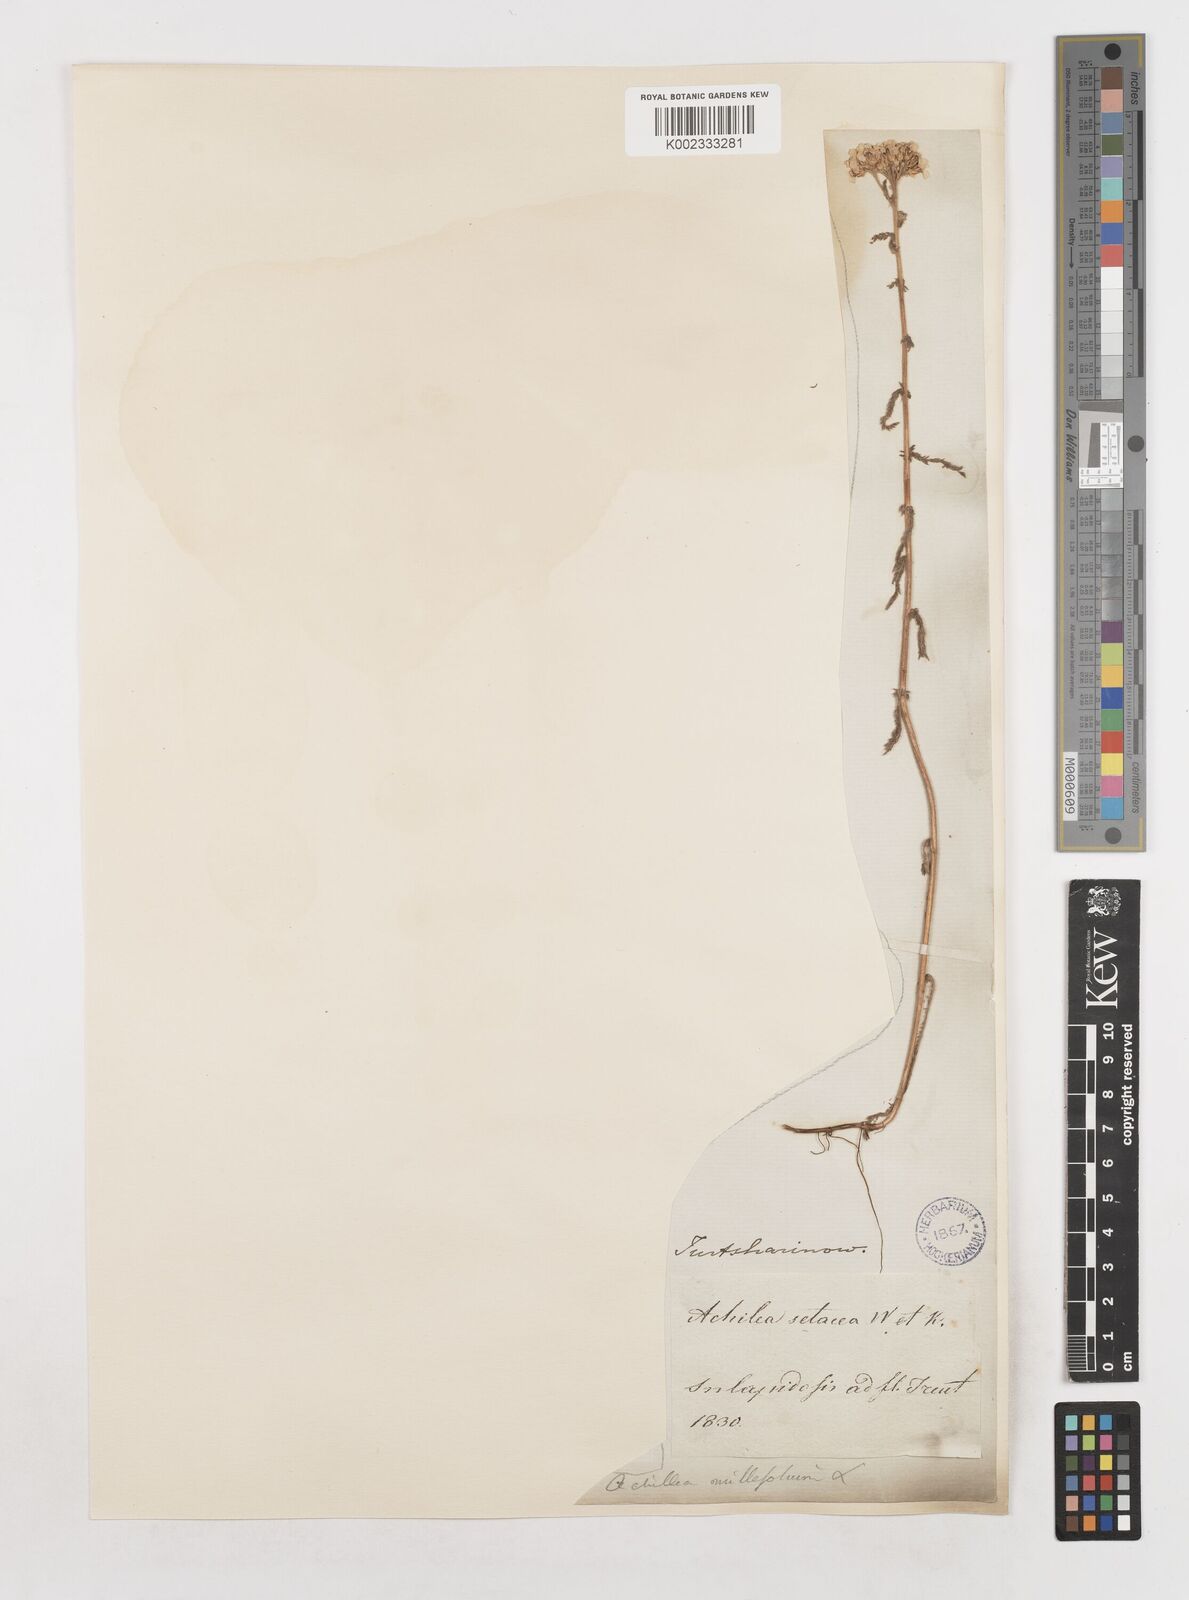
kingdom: Plantae
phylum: Tracheophyta
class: Magnoliopsida
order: Asterales
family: Asteraceae
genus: Achillea
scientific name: Achillea setacea
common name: Bristly yarrow
